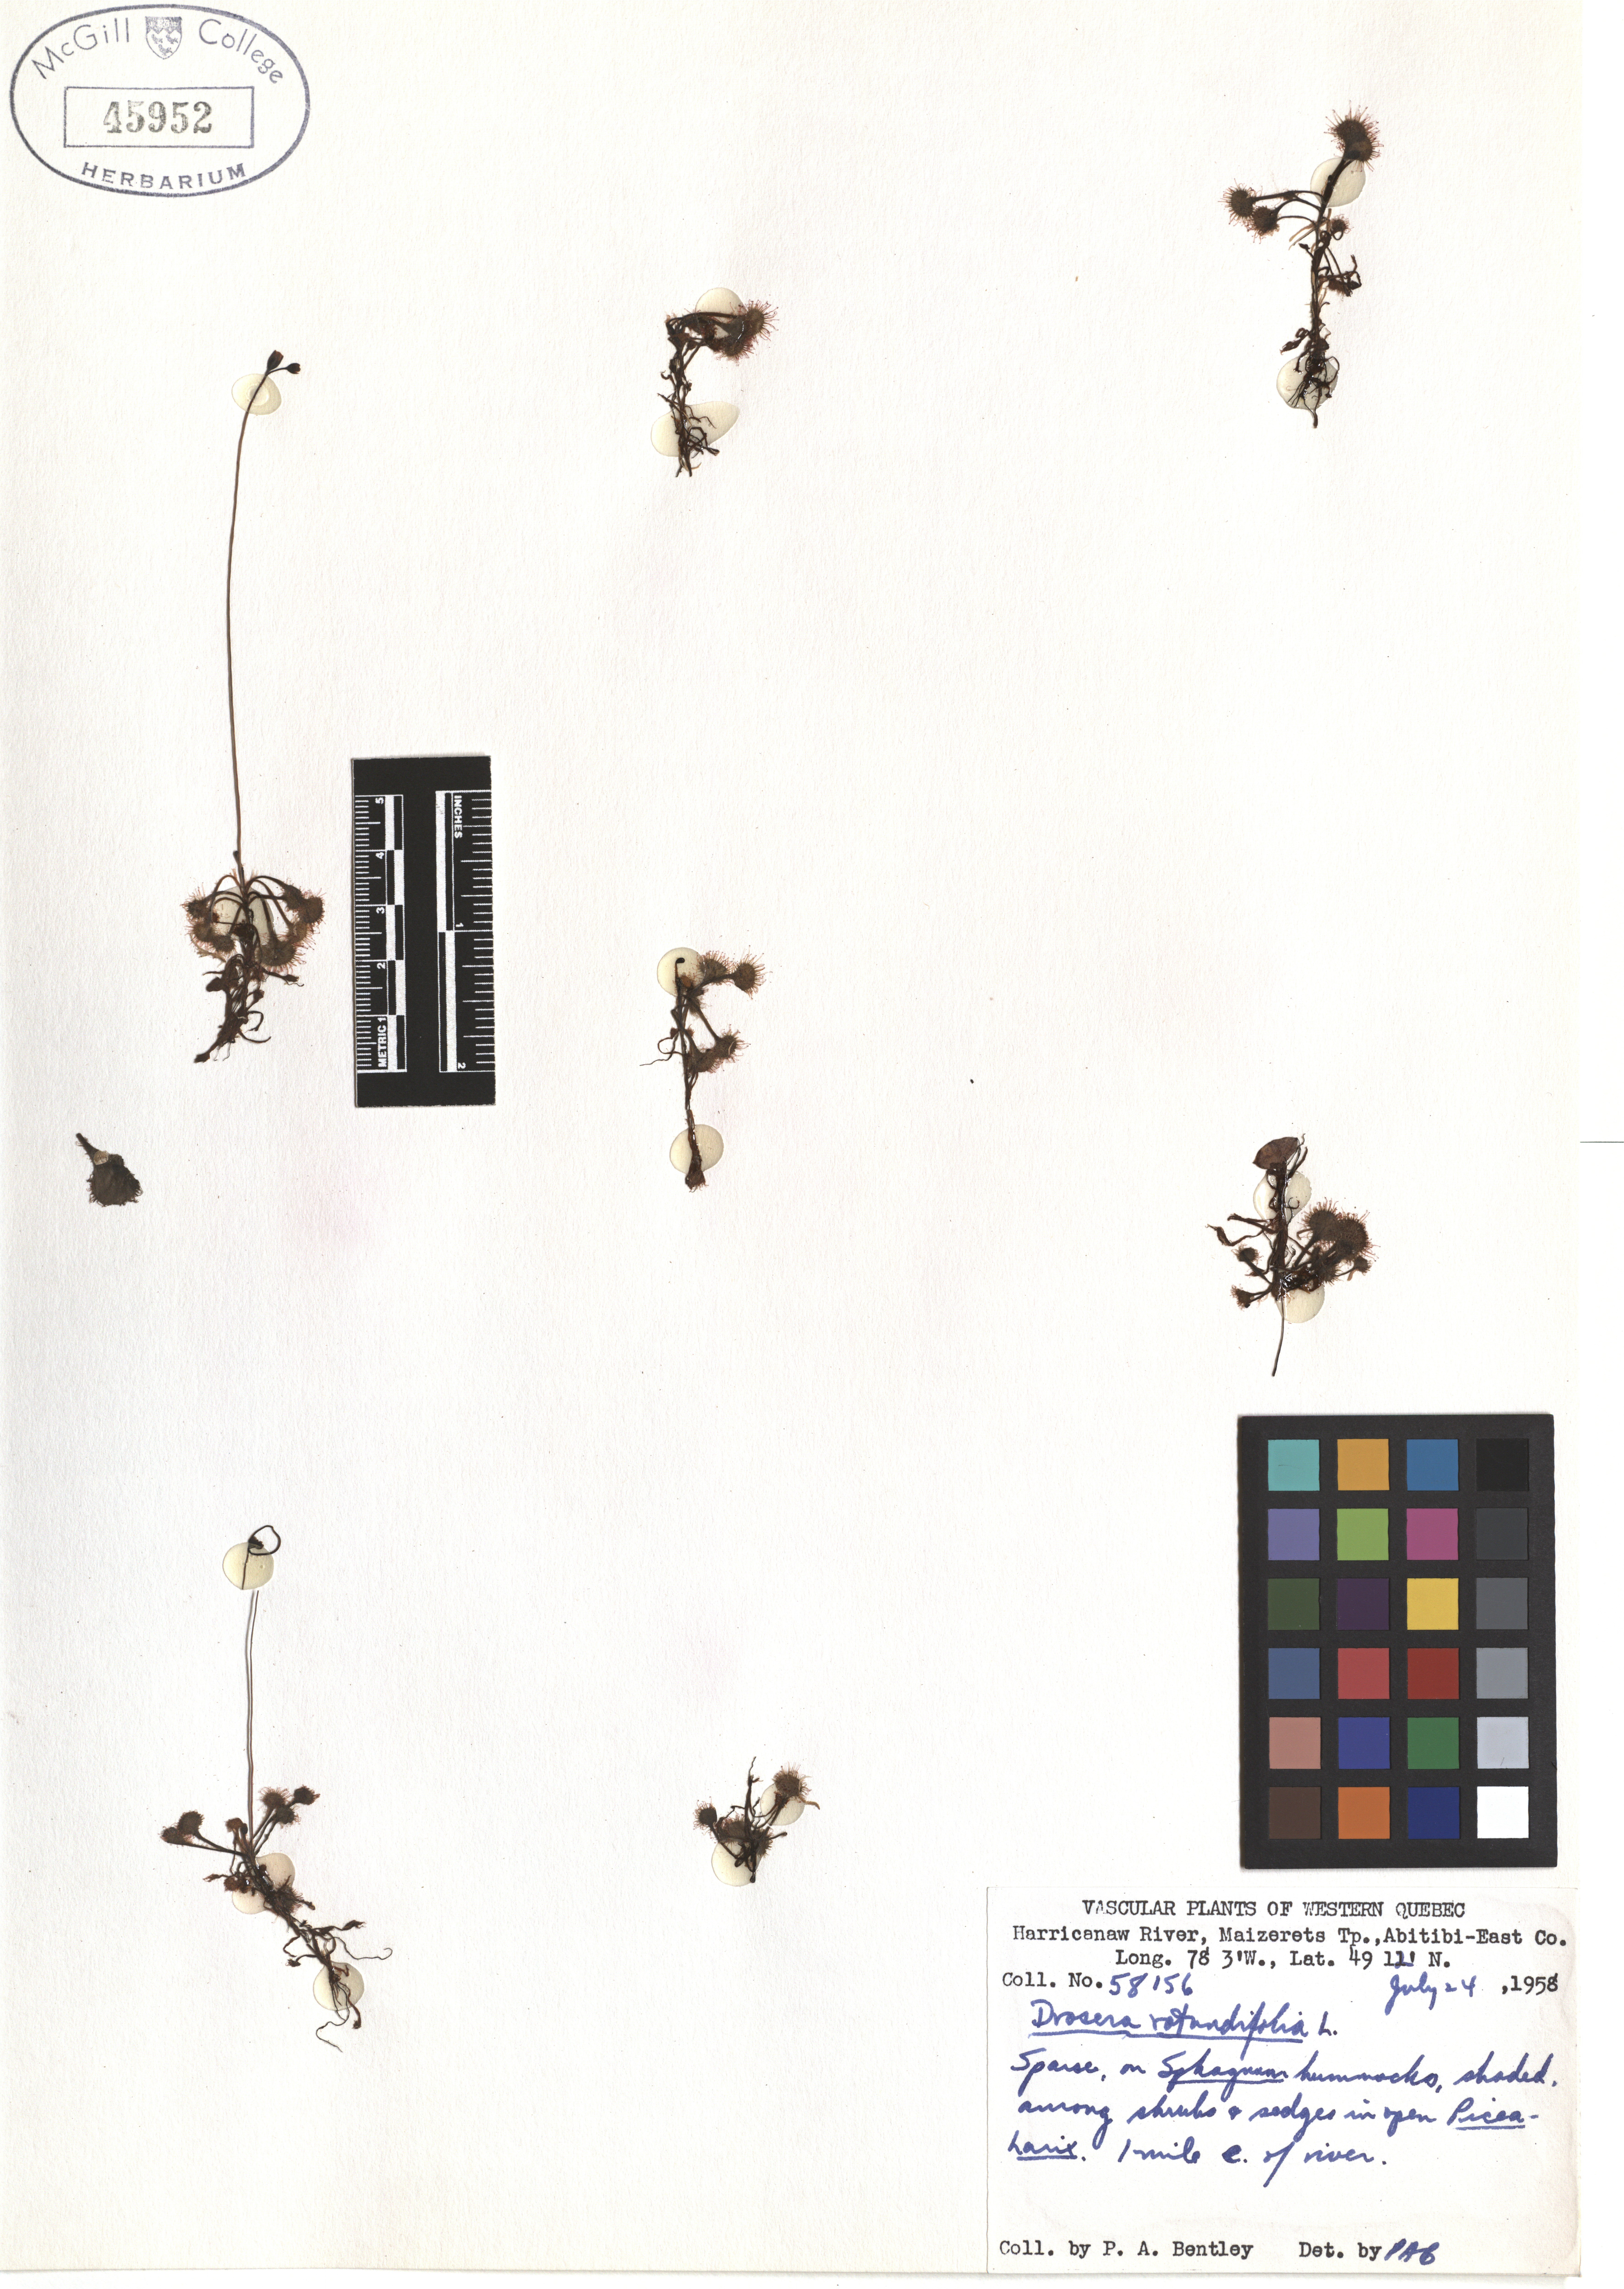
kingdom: Plantae
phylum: Tracheophyta
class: Magnoliopsida
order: Caryophyllales
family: Droseraceae
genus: Drosera
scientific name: Drosera rotundifolia
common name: Round-leaved sundew
